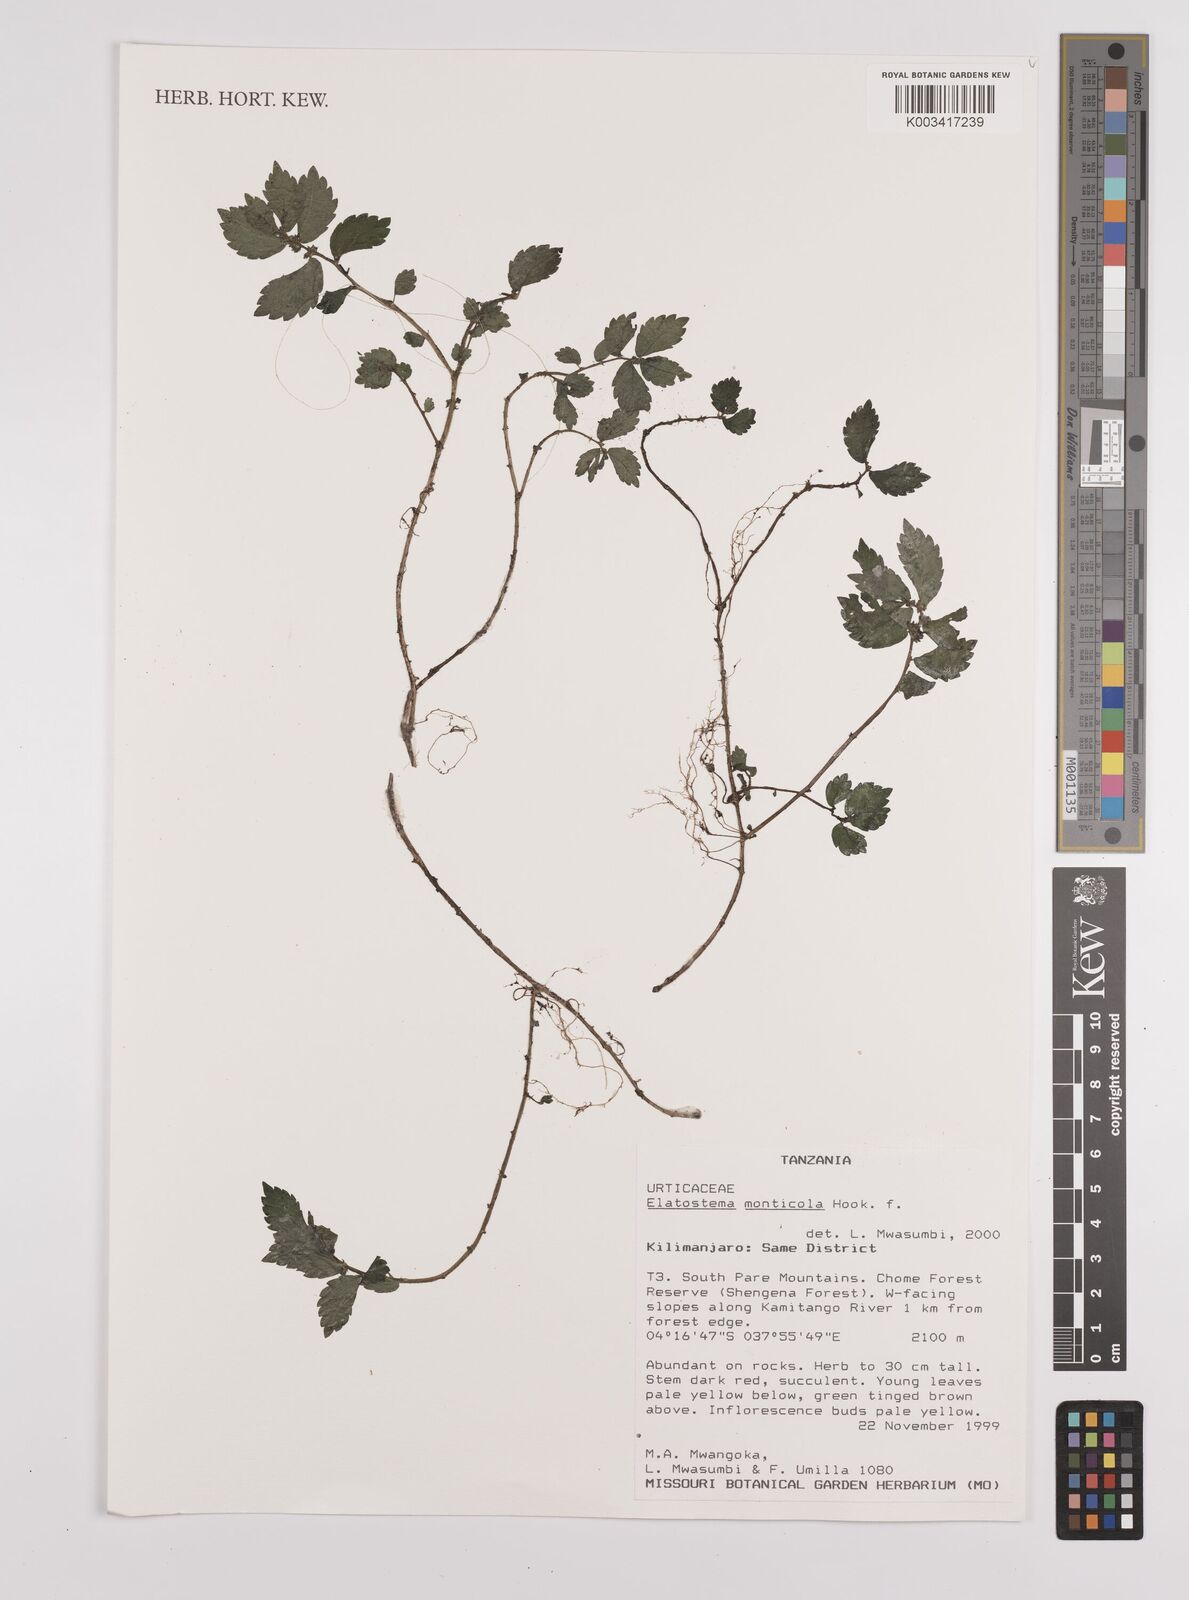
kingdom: Plantae
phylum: Tracheophyta
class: Magnoliopsida
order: Rosales
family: Urticaceae
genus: Elatostema
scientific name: Elatostema monticola
